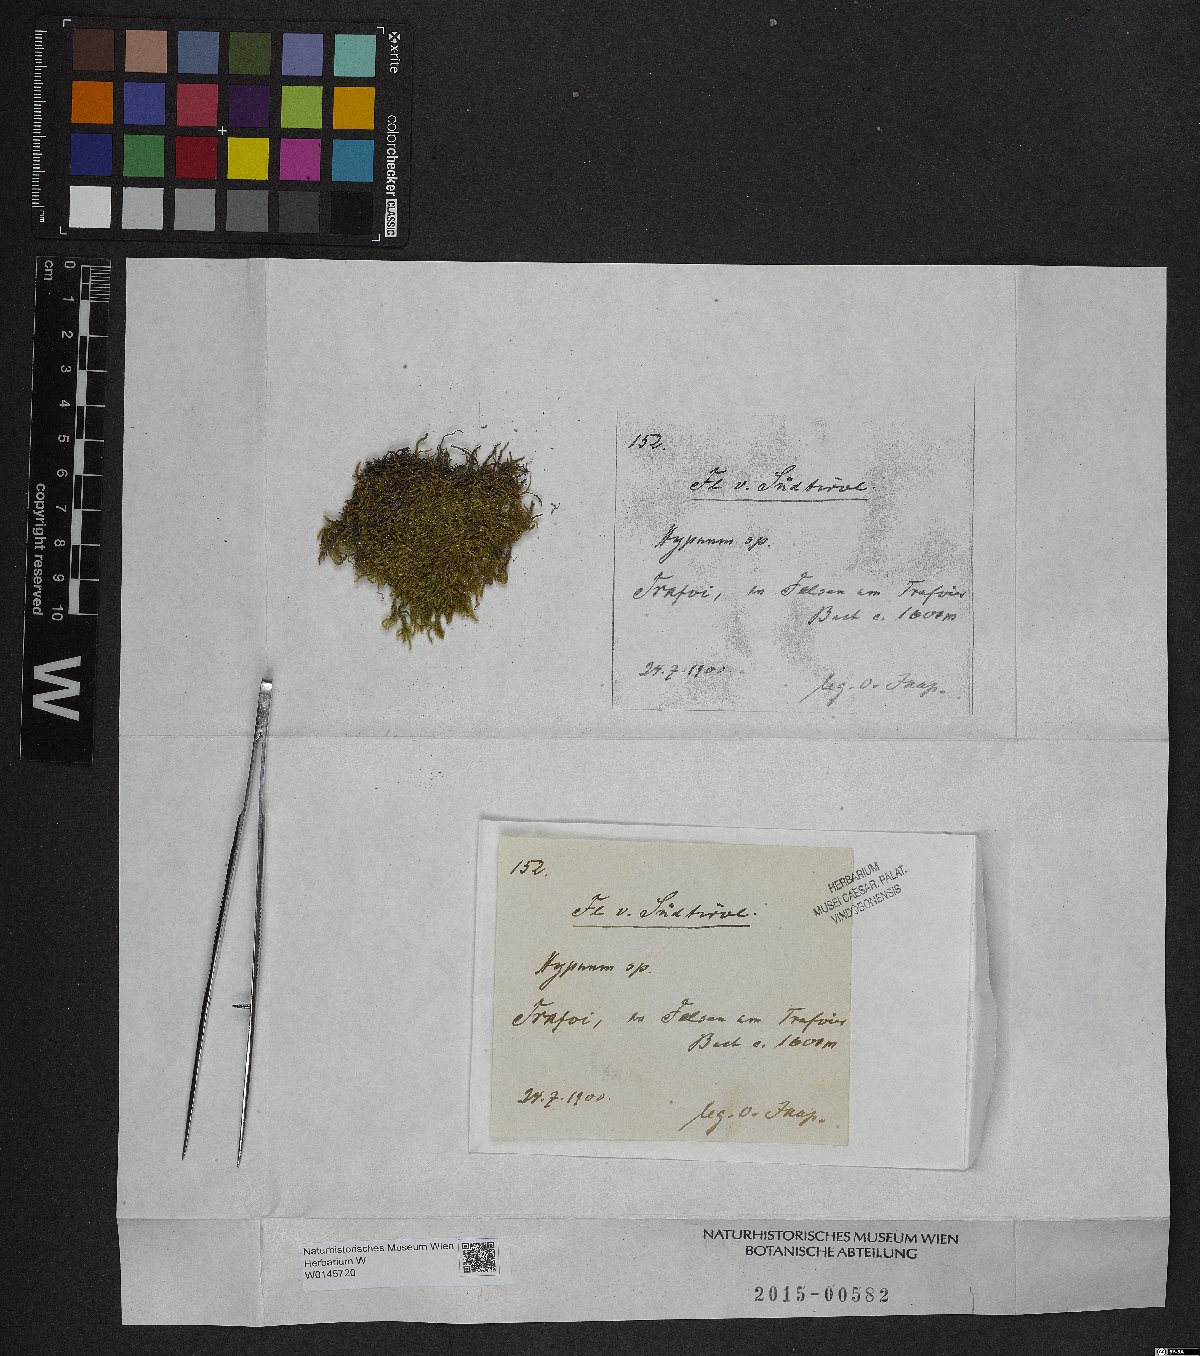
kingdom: Plantae
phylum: Bryophyta
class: Bryopsida
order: Hypnales
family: Hypnaceae
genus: Hypnum
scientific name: Hypnum
